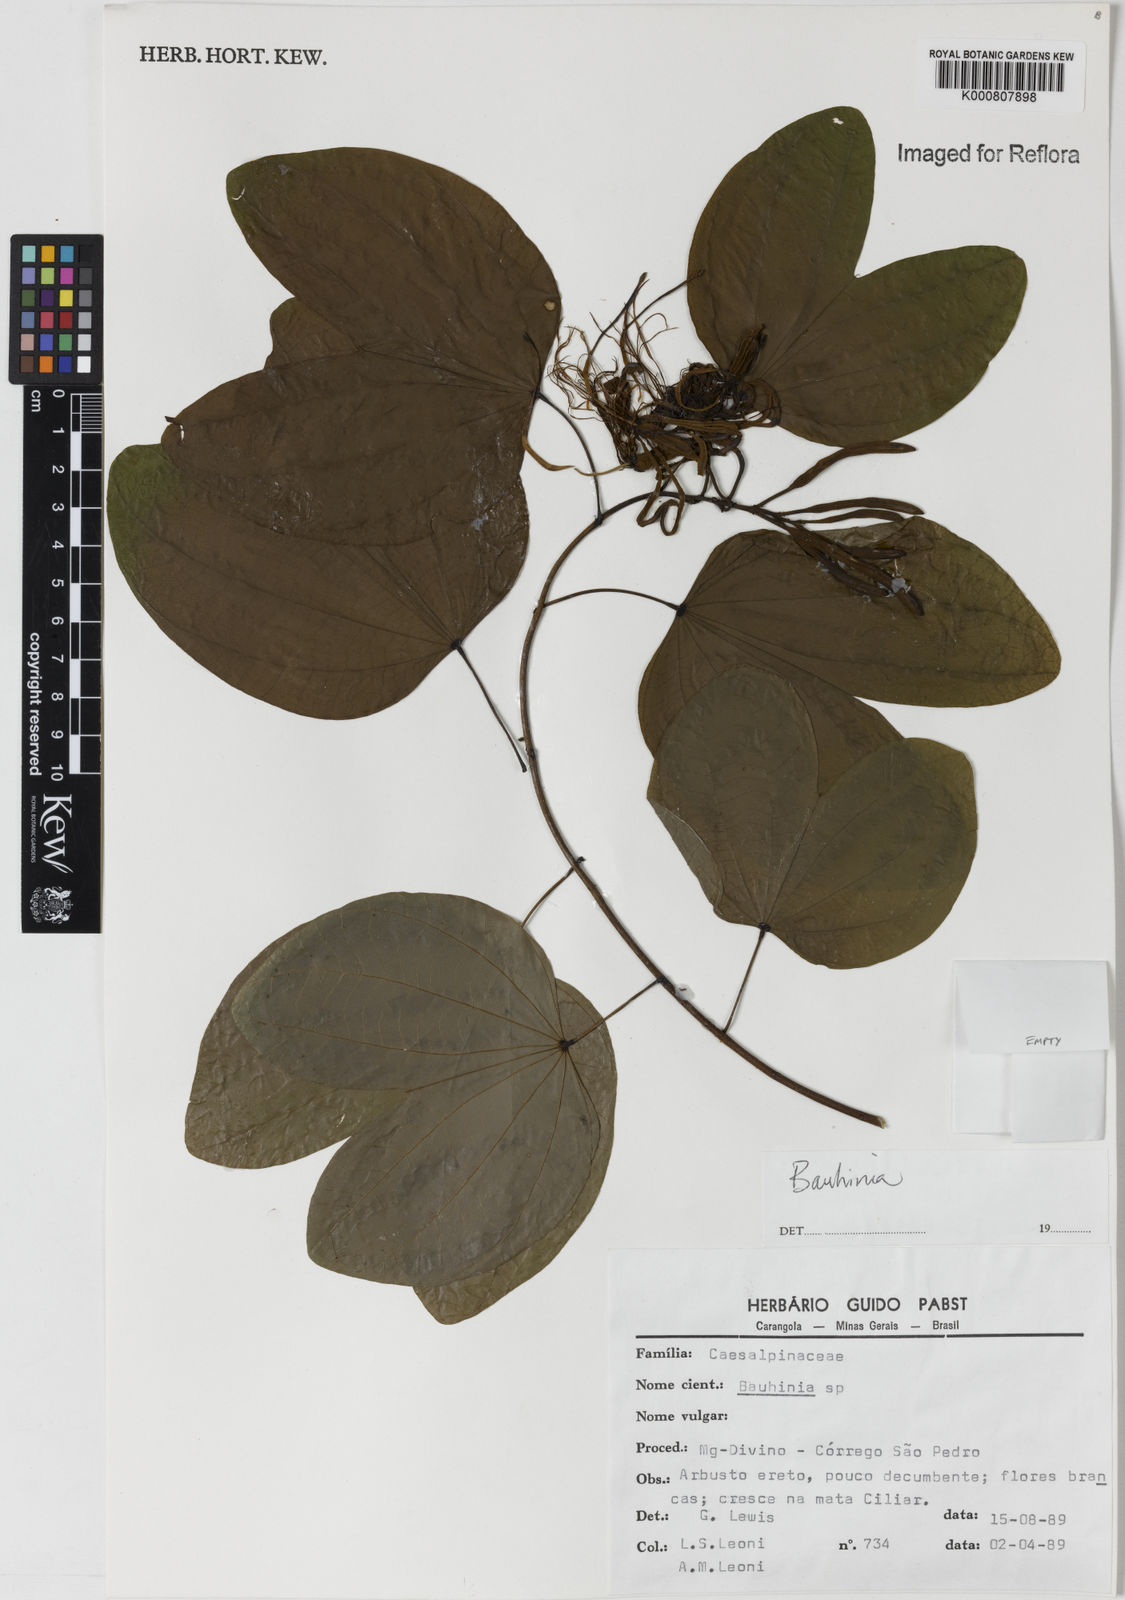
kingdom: Plantae
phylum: Tracheophyta
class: Magnoliopsida
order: Fabales
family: Fabaceae
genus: Bauhinia
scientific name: Bauhinia
